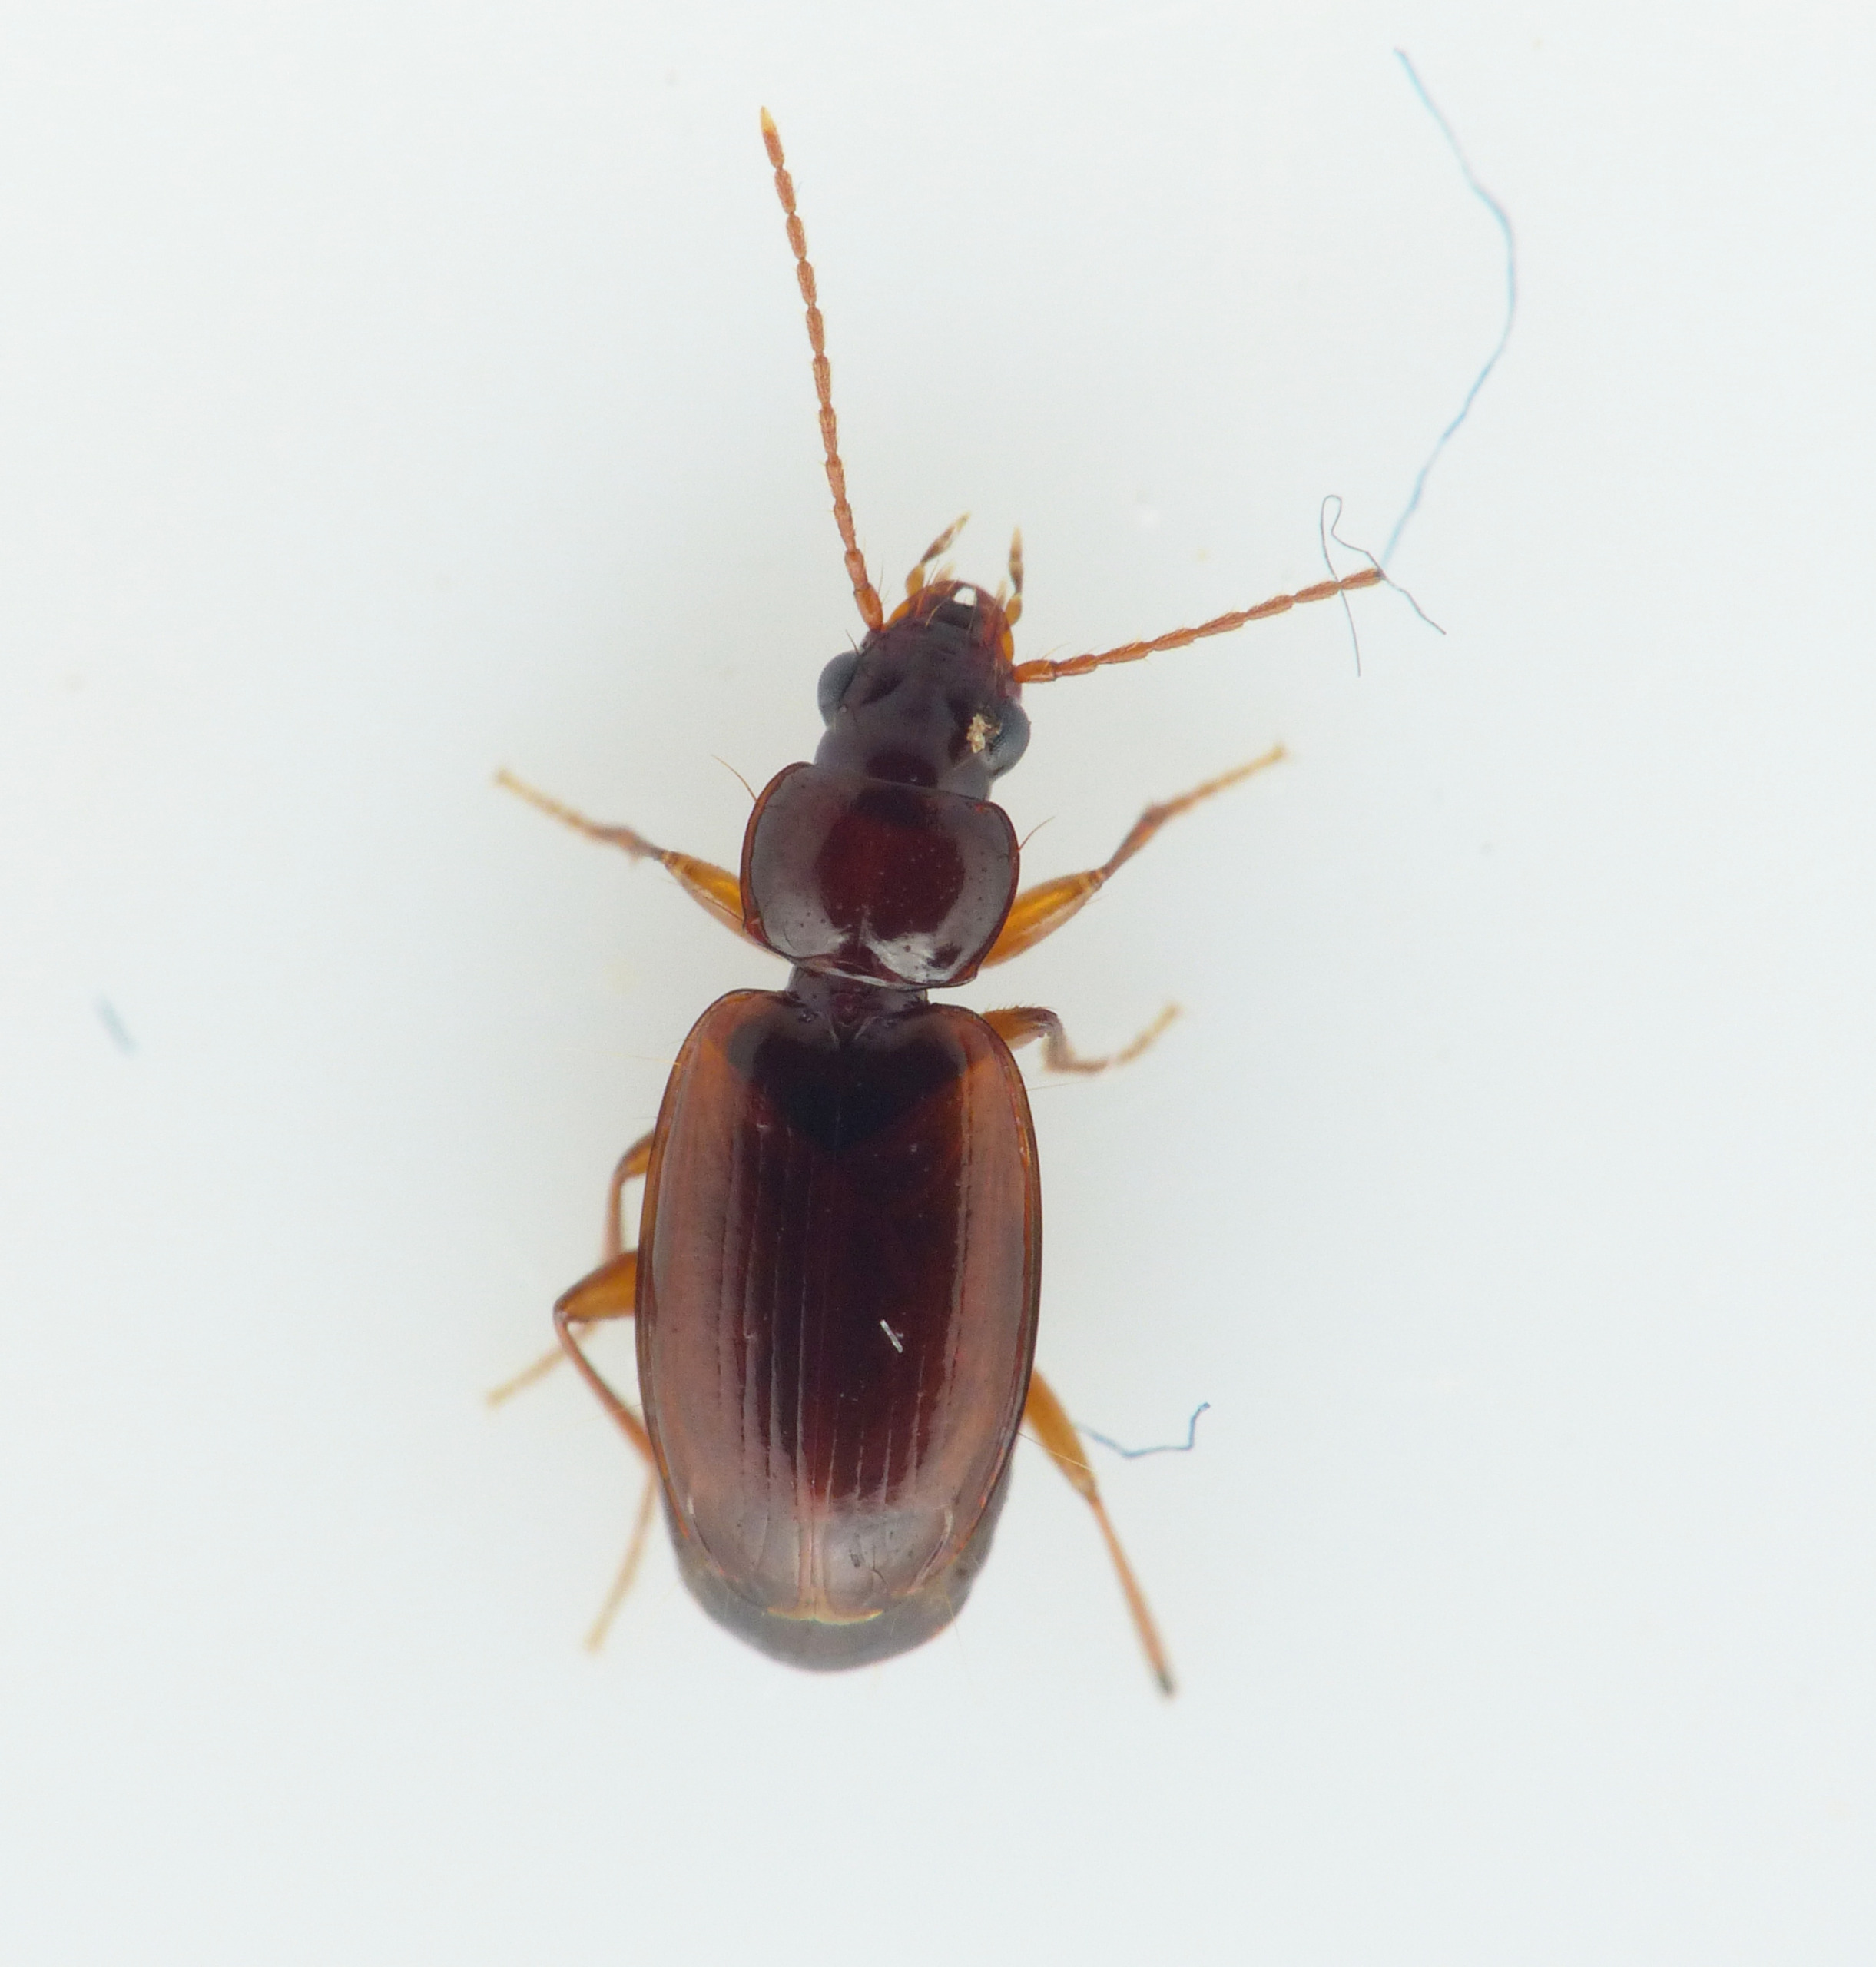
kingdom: Animalia
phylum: Arthropoda
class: Insecta
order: Coleoptera
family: Carabidae
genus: Trechus
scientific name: Trechus quadristriatus
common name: Markgrotteløber
